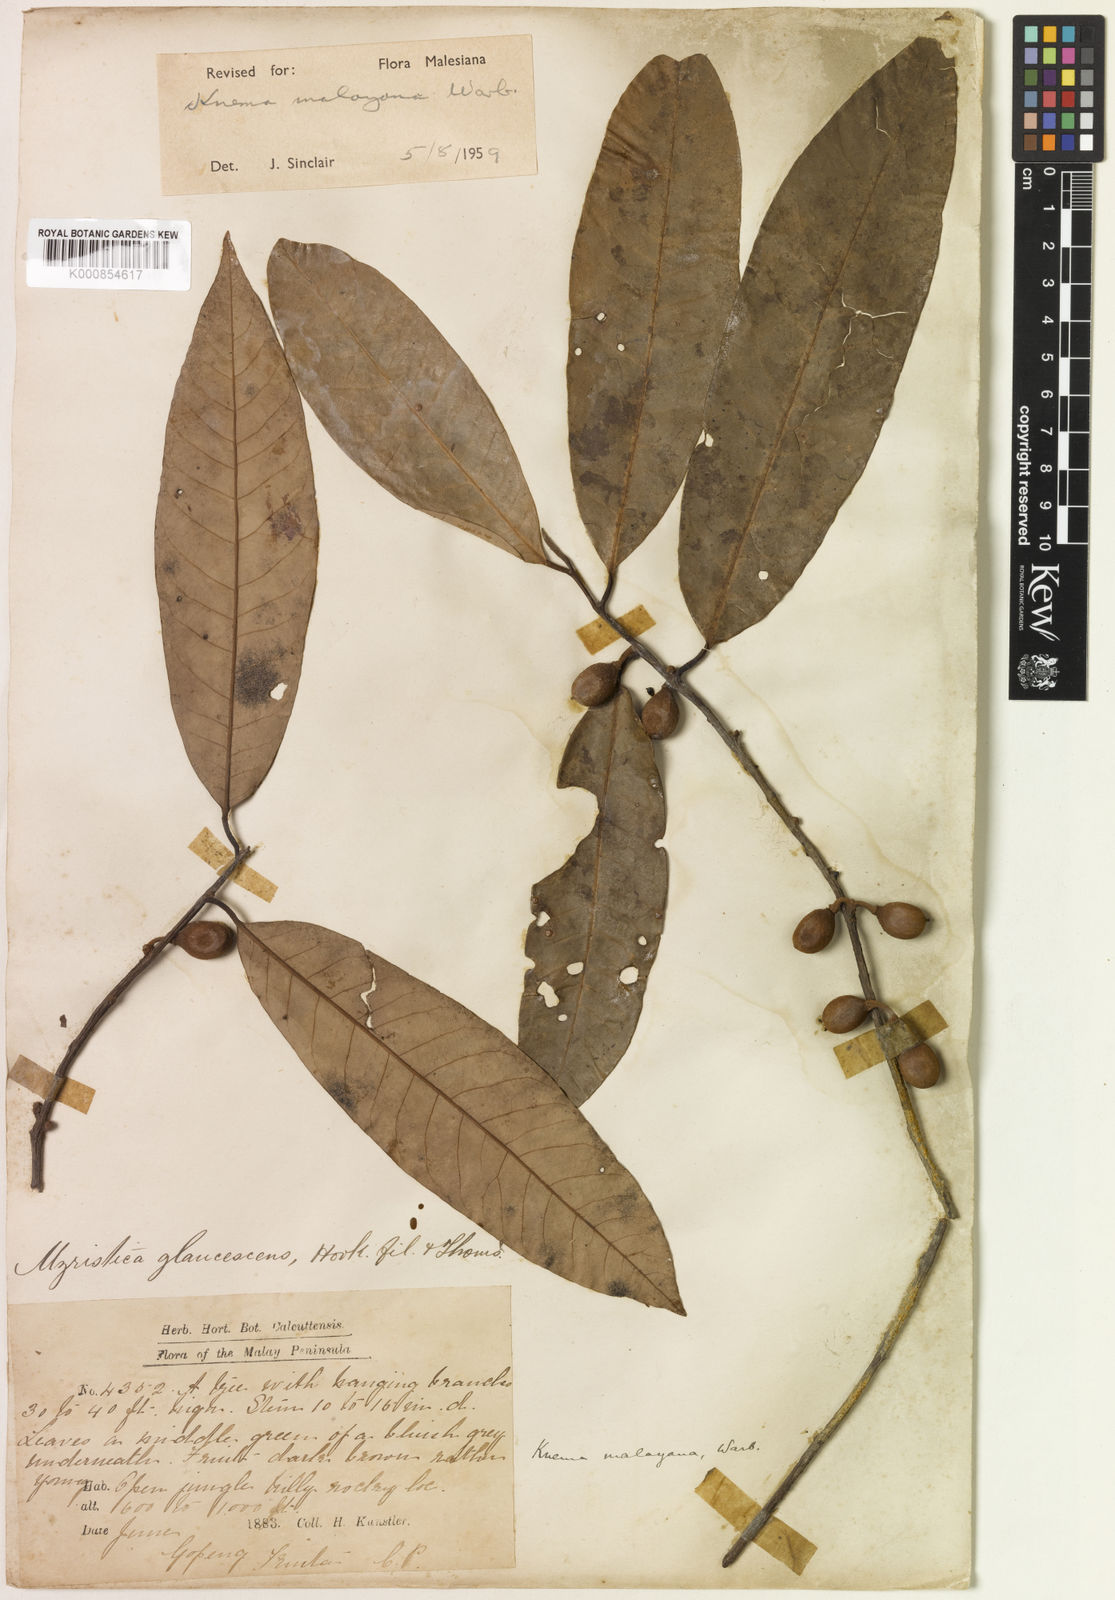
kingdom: Plantae
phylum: Tracheophyta
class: Magnoliopsida
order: Magnoliales
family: Myristicaceae
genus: Knema
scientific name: Knema malayana
